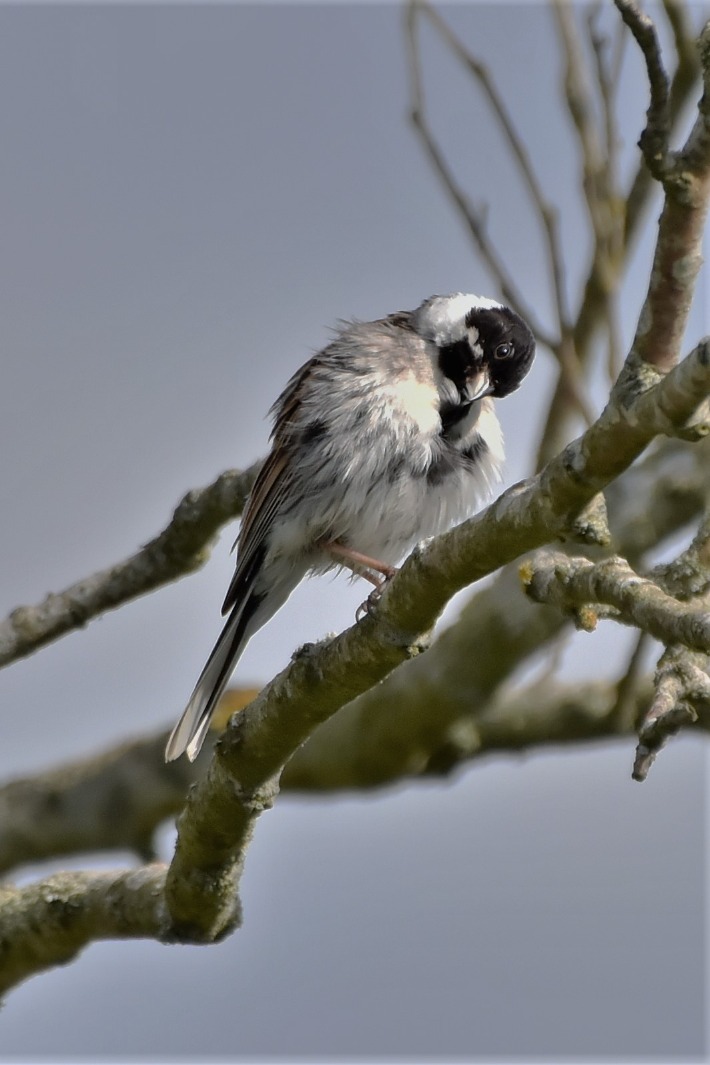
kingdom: Animalia
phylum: Chordata
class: Aves
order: Passeriformes
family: Emberizidae
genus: Emberiza
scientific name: Emberiza schoeniclus
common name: Rørspurv
